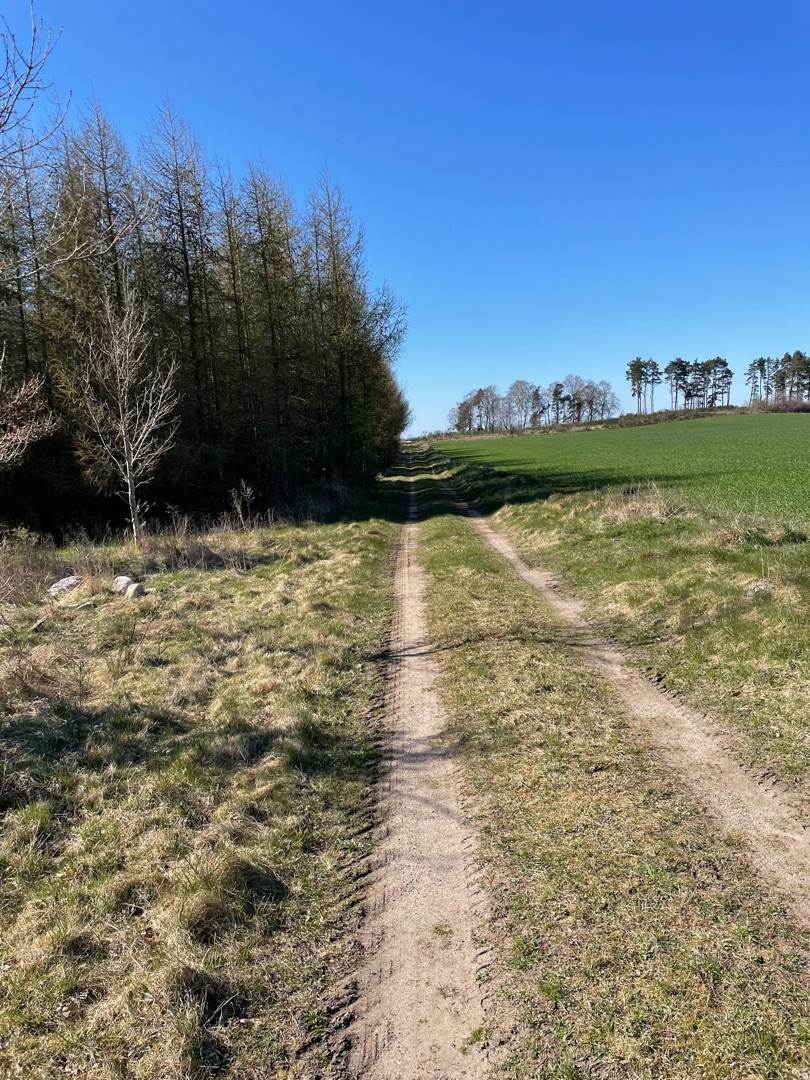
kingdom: Animalia
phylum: Chordata
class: Mammalia
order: Lagomorpha
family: Leporidae
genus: Lepus
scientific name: Lepus europaeus
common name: Hare
